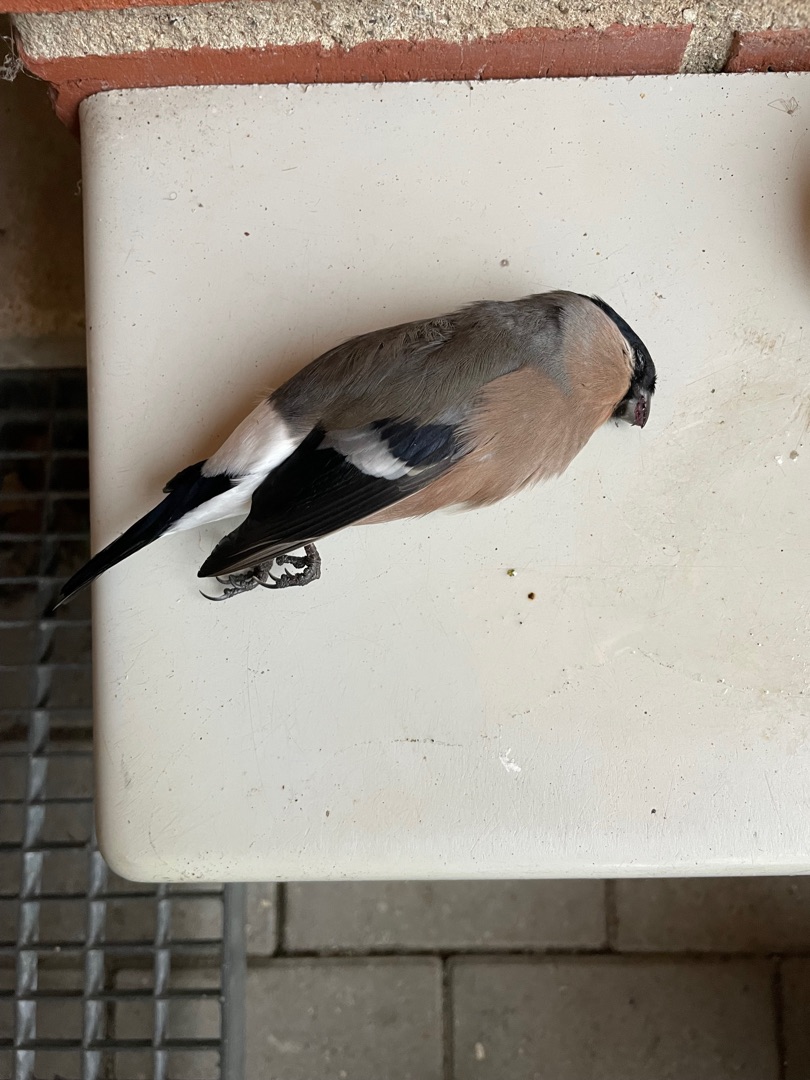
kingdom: Animalia
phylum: Chordata
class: Aves
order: Passeriformes
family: Fringillidae
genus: Pyrrhula
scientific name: Pyrrhula pyrrhula
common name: Dompap
